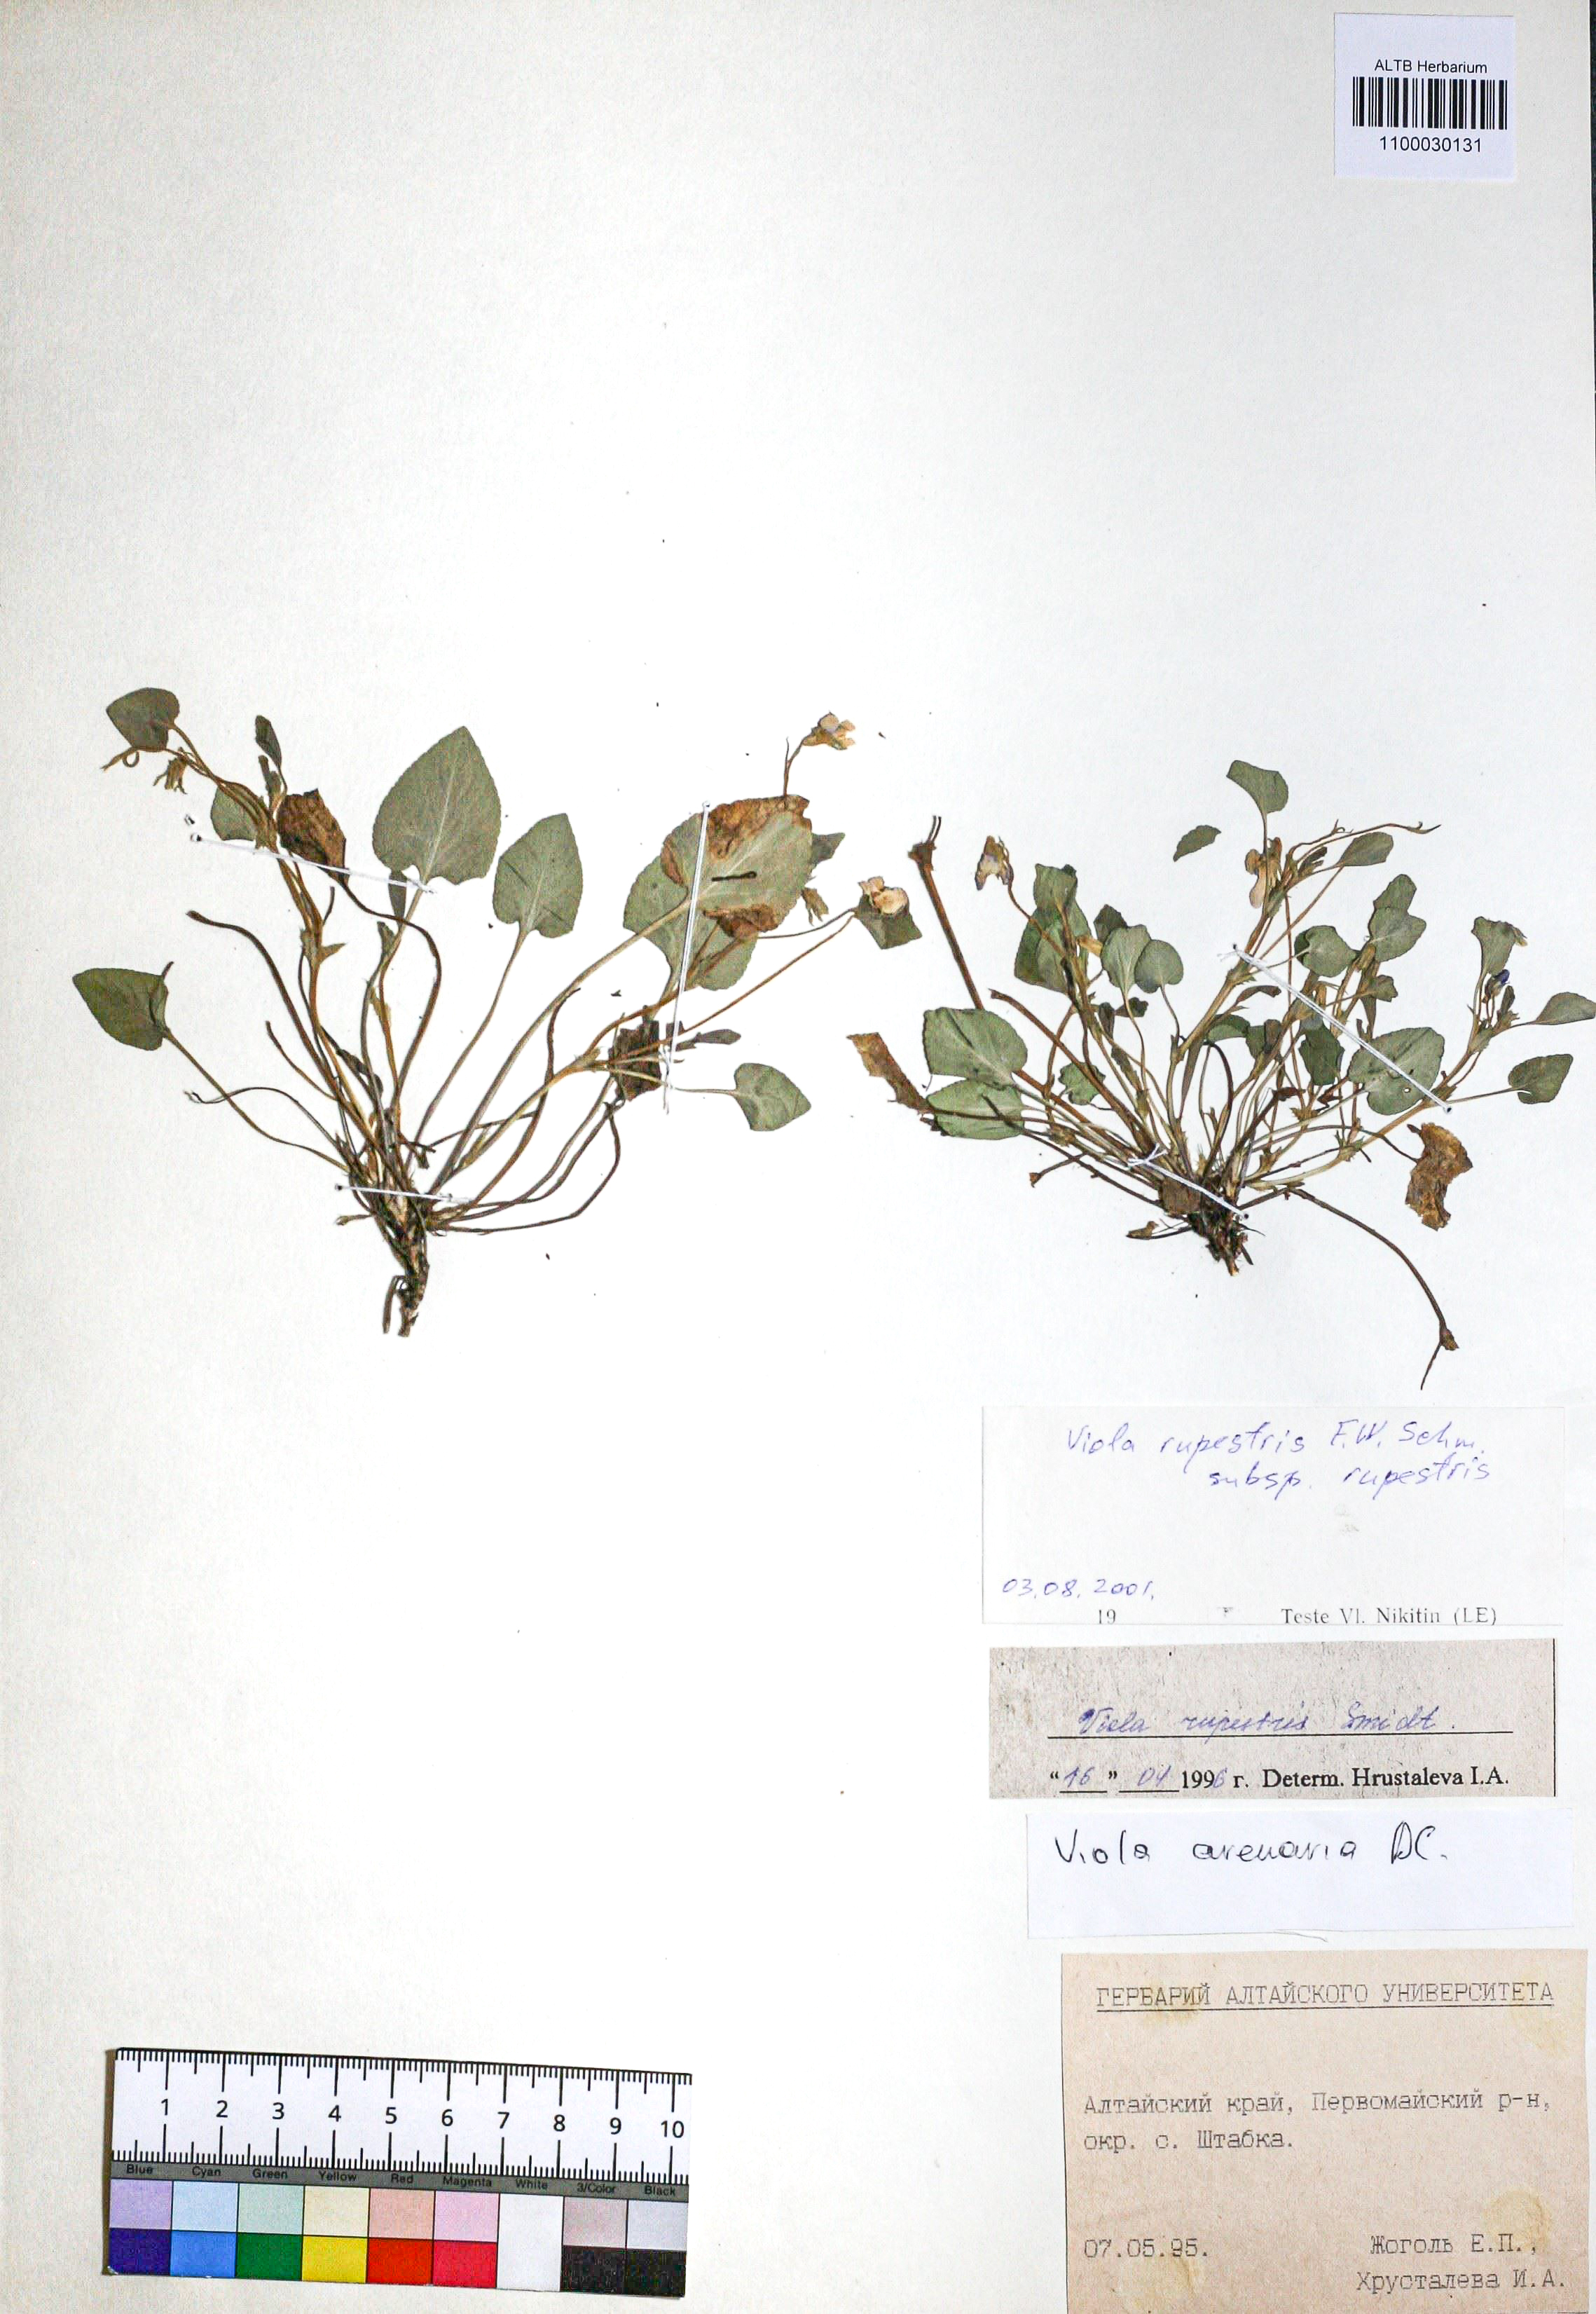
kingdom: Plantae
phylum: Tracheophyta
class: Magnoliopsida
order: Malpighiales
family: Violaceae
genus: Viola
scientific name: Viola rupestris
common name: Teesdale violet
